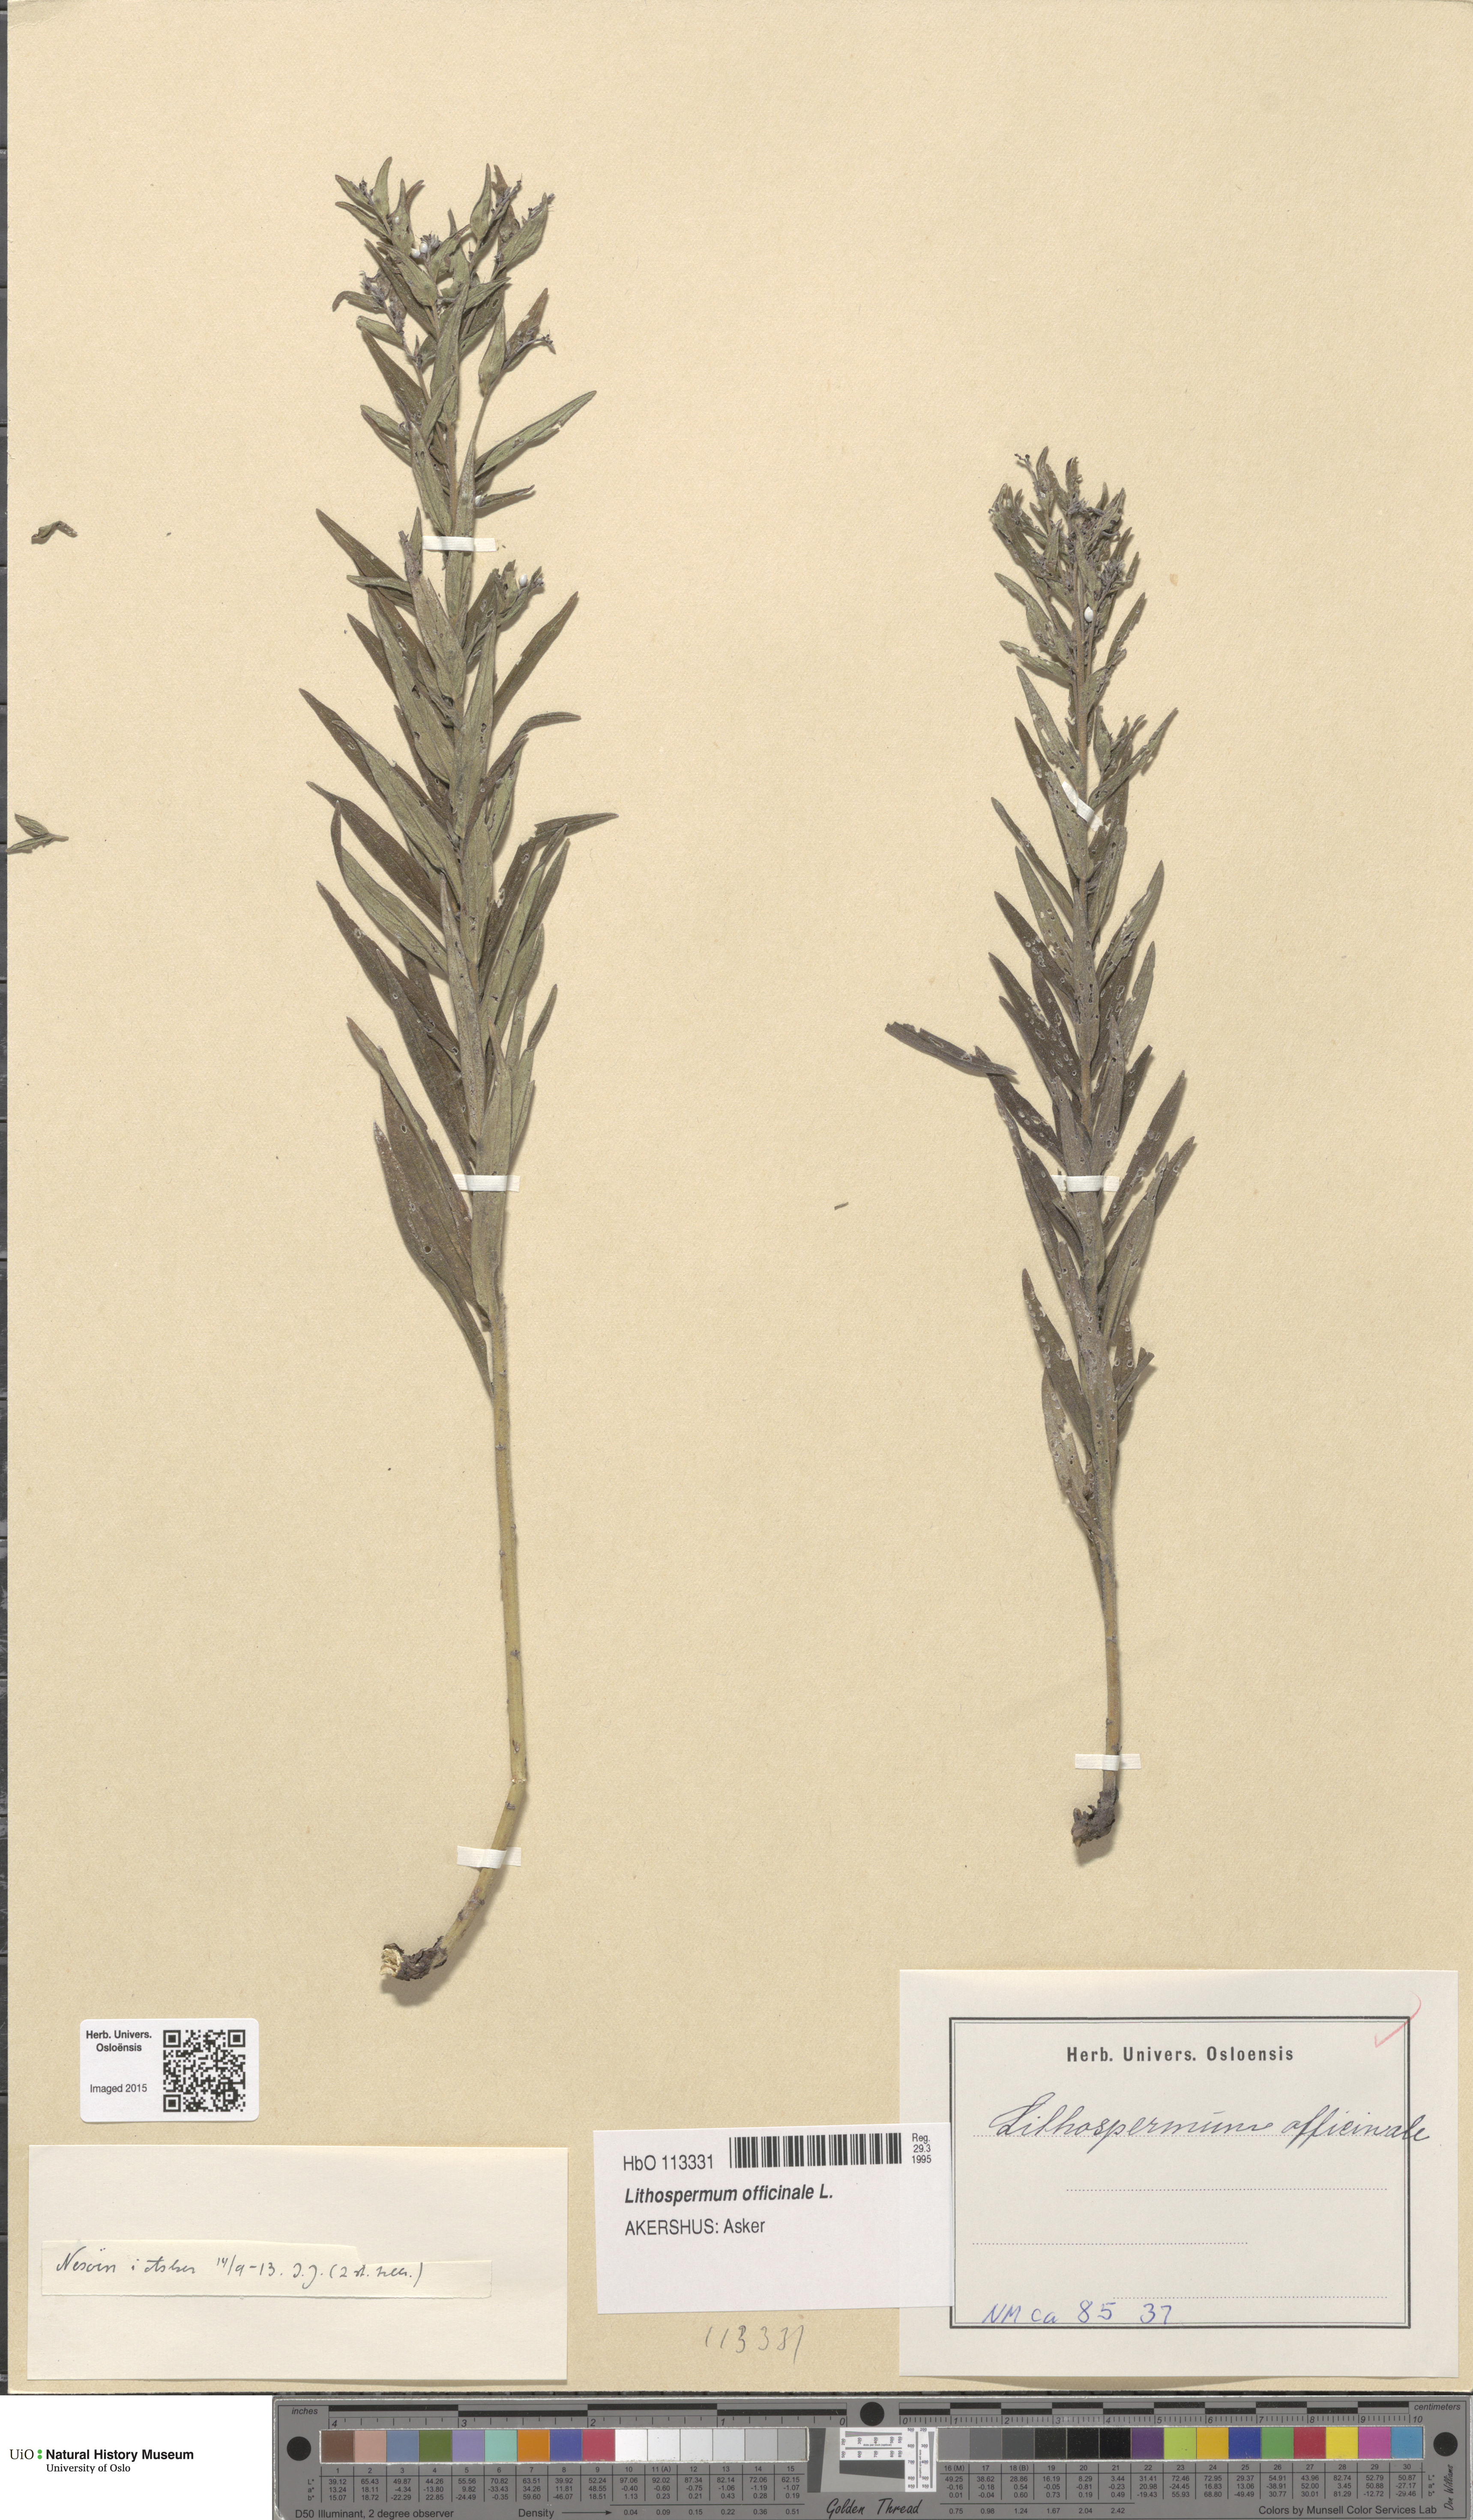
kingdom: Plantae
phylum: Tracheophyta
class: Magnoliopsida
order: Boraginales
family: Boraginaceae
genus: Lithospermum
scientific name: Lithospermum officinale
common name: Common gromwell
